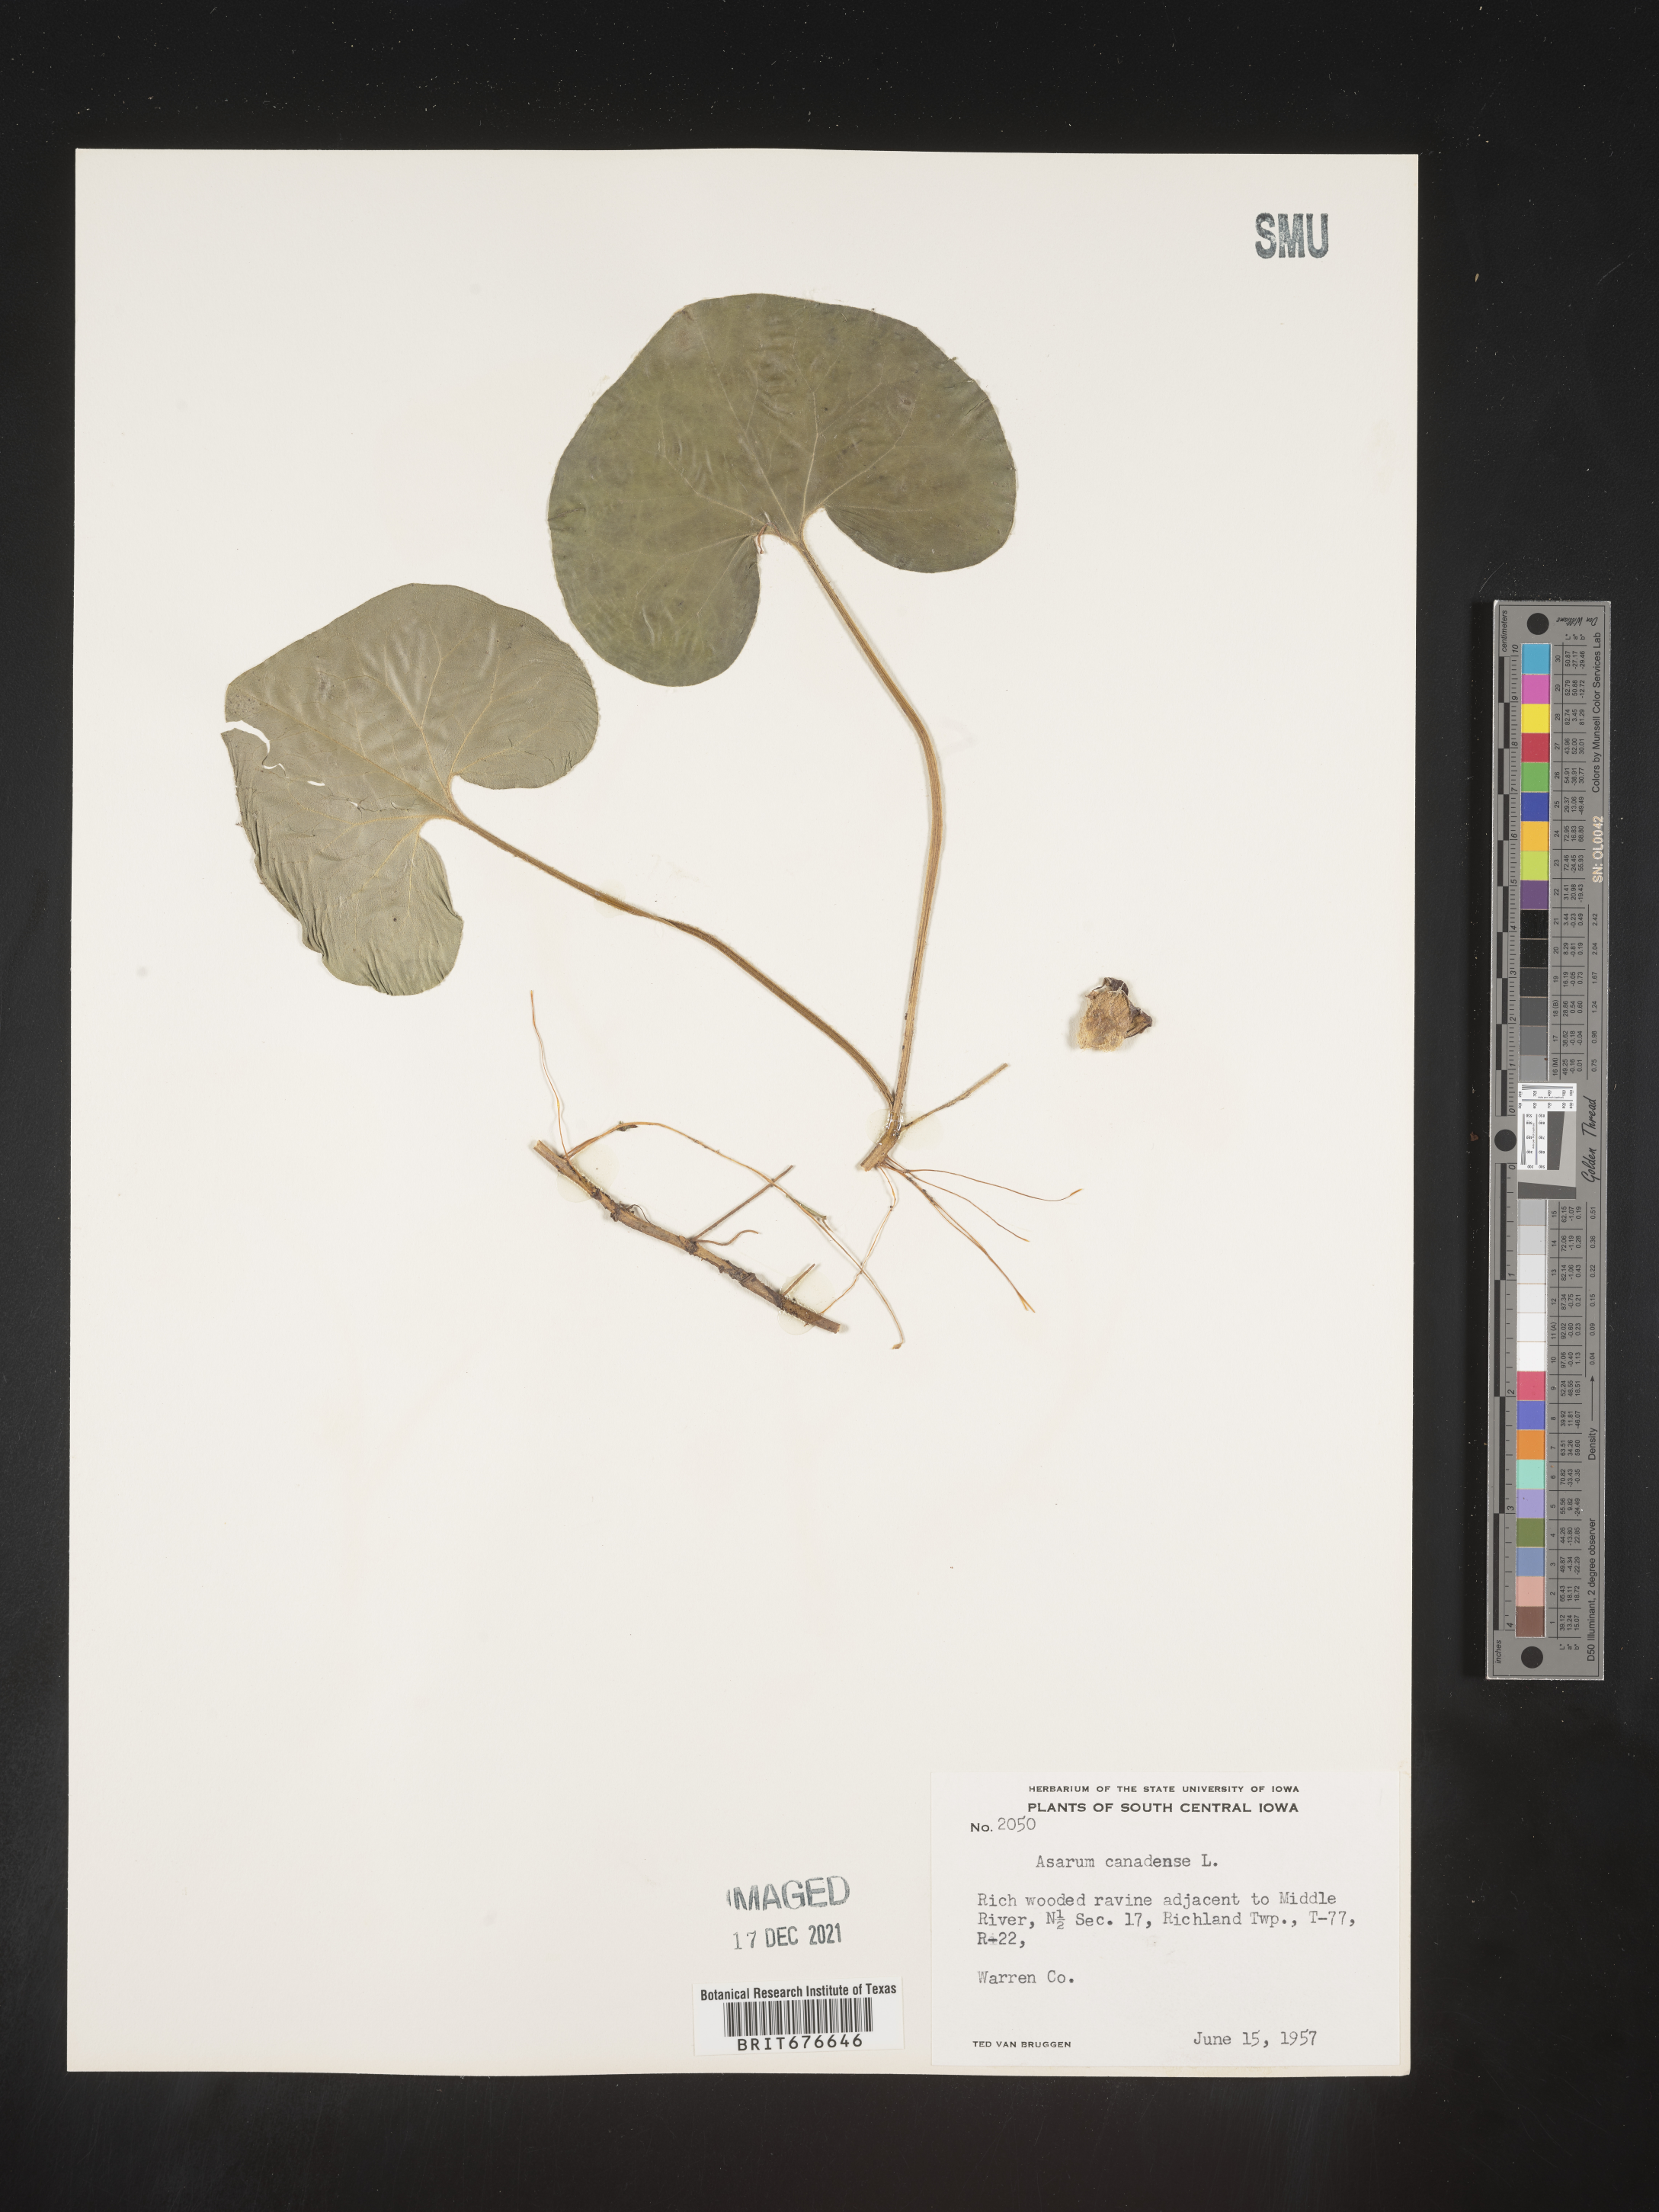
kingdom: Plantae
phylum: Tracheophyta
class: Magnoliopsida
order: Piperales
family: Aristolochiaceae
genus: Asarum
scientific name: Asarum canadense
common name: Wild ginger
